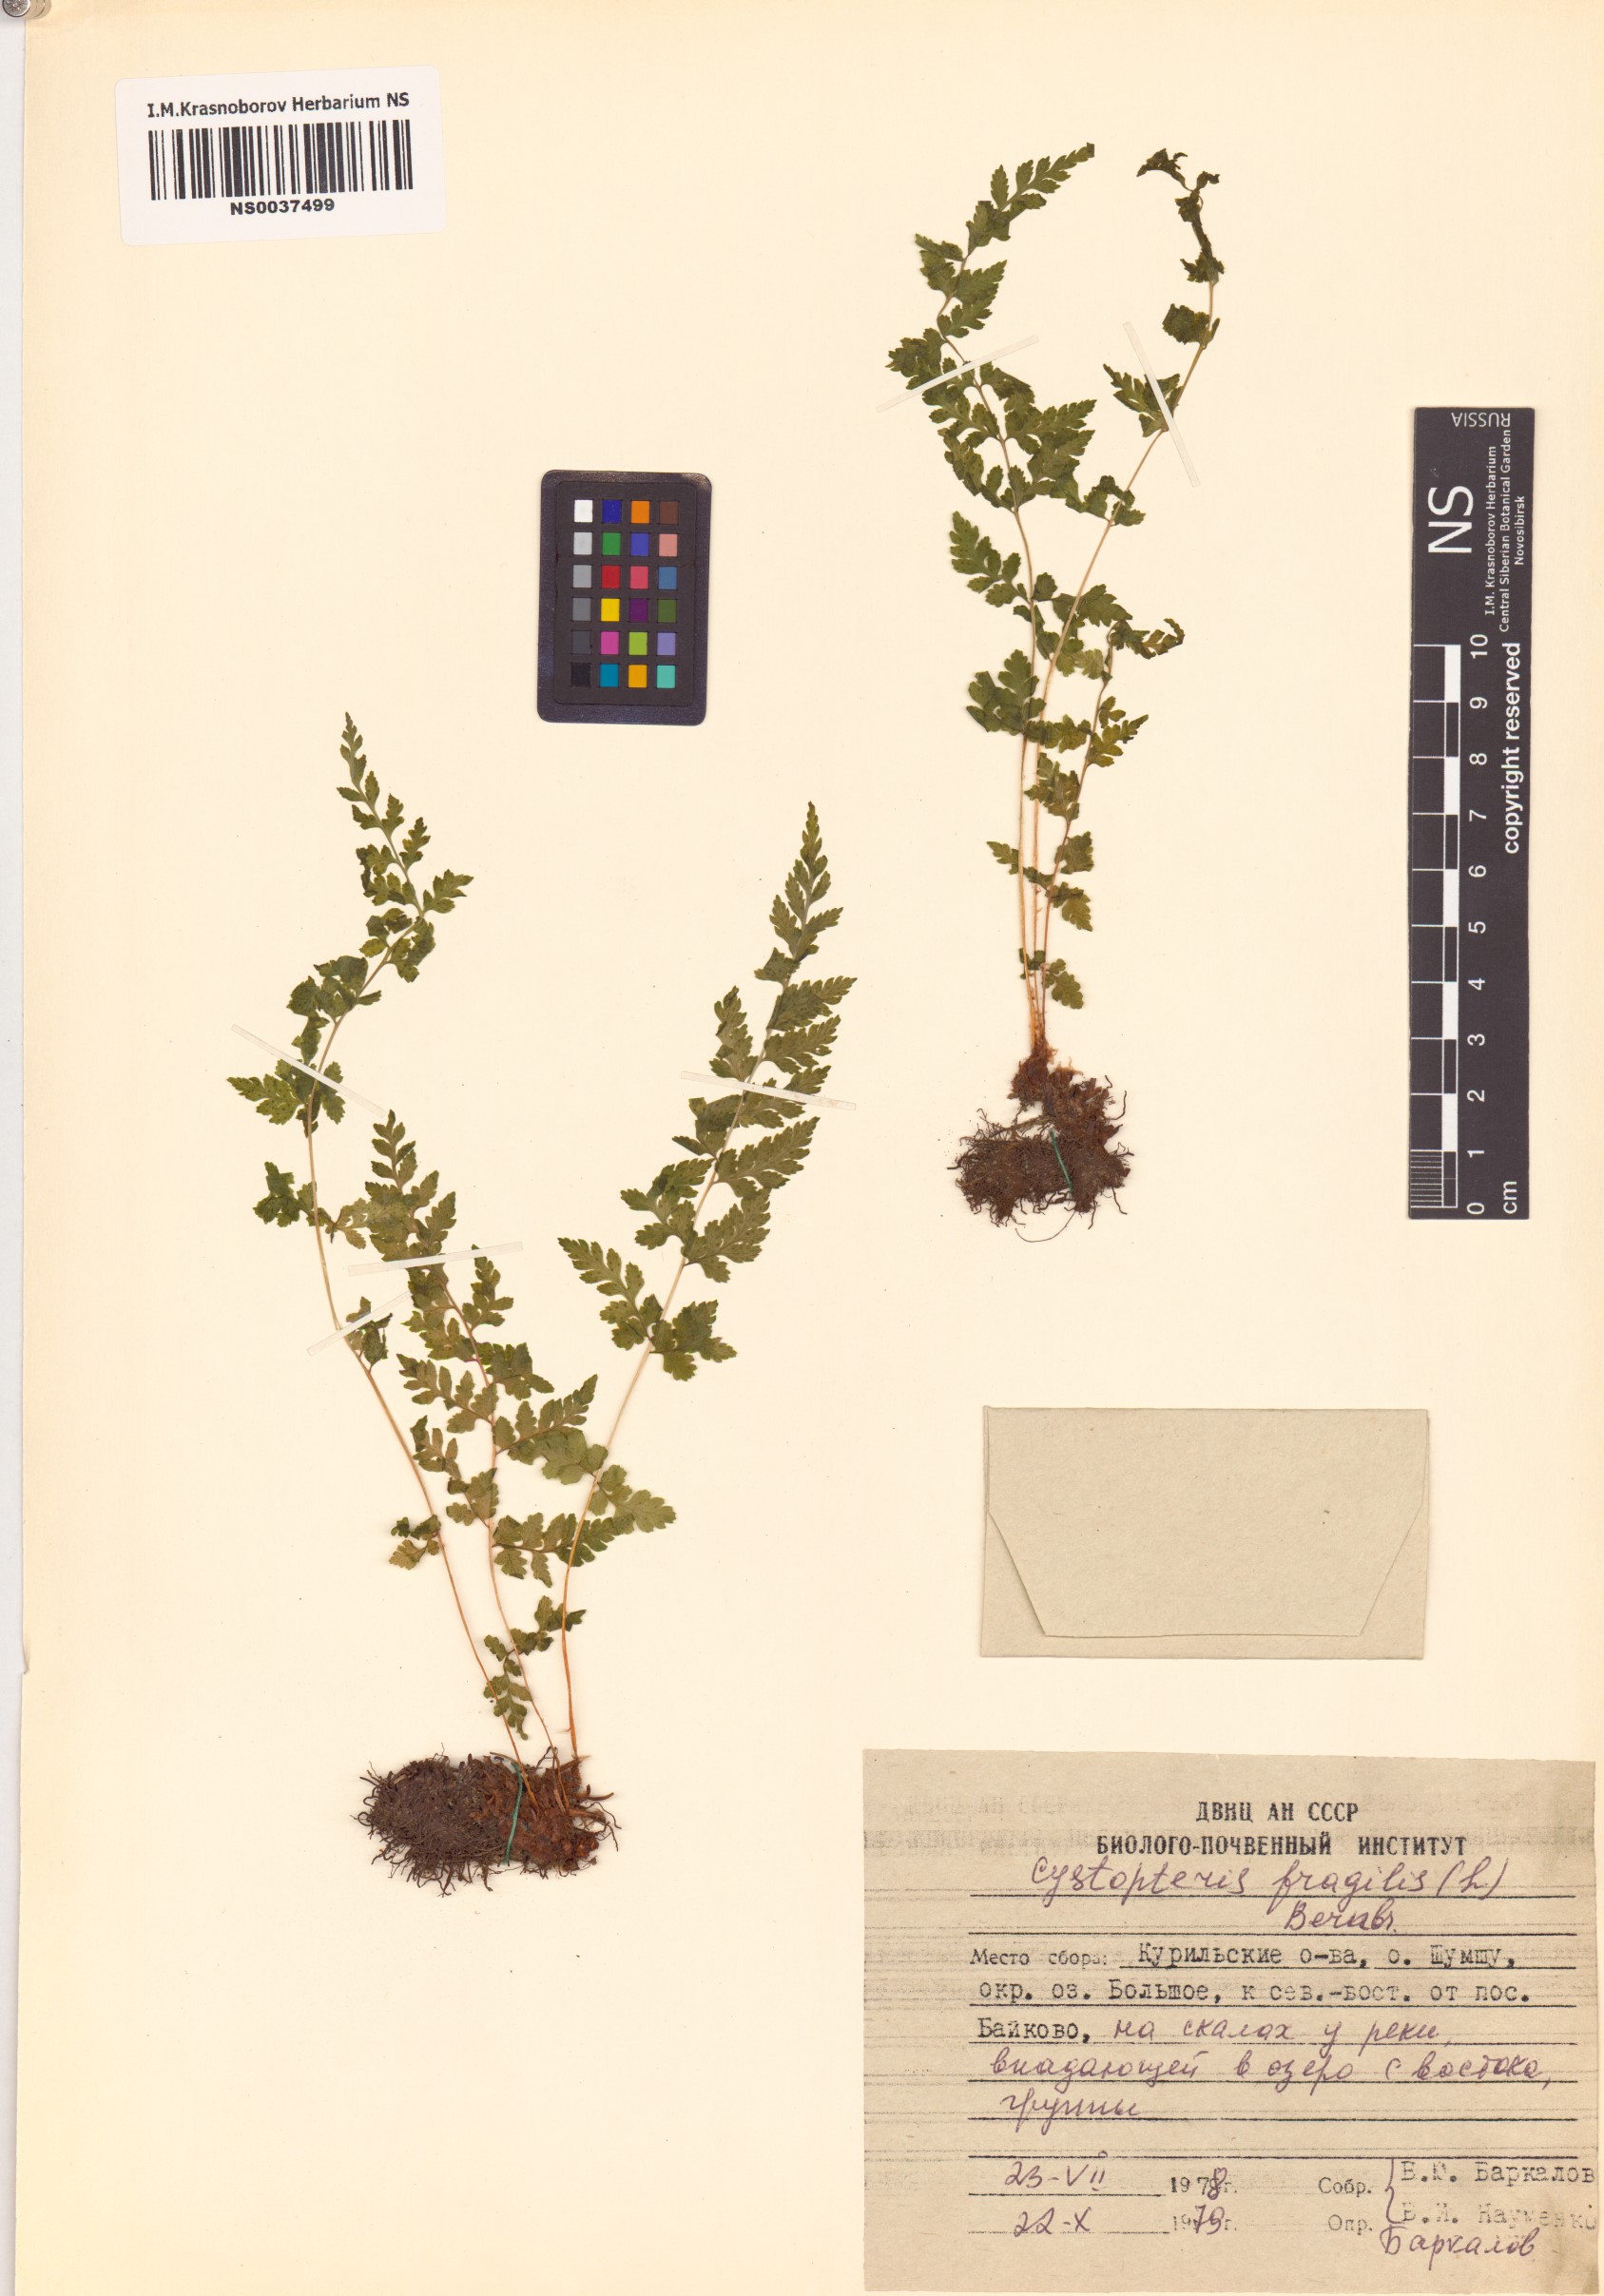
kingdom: Plantae
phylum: Tracheophyta
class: Polypodiopsida
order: Polypodiales
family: Cystopteridaceae
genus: Cystopteris
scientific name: Cystopteris fragilis
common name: Brittle bladder fern
